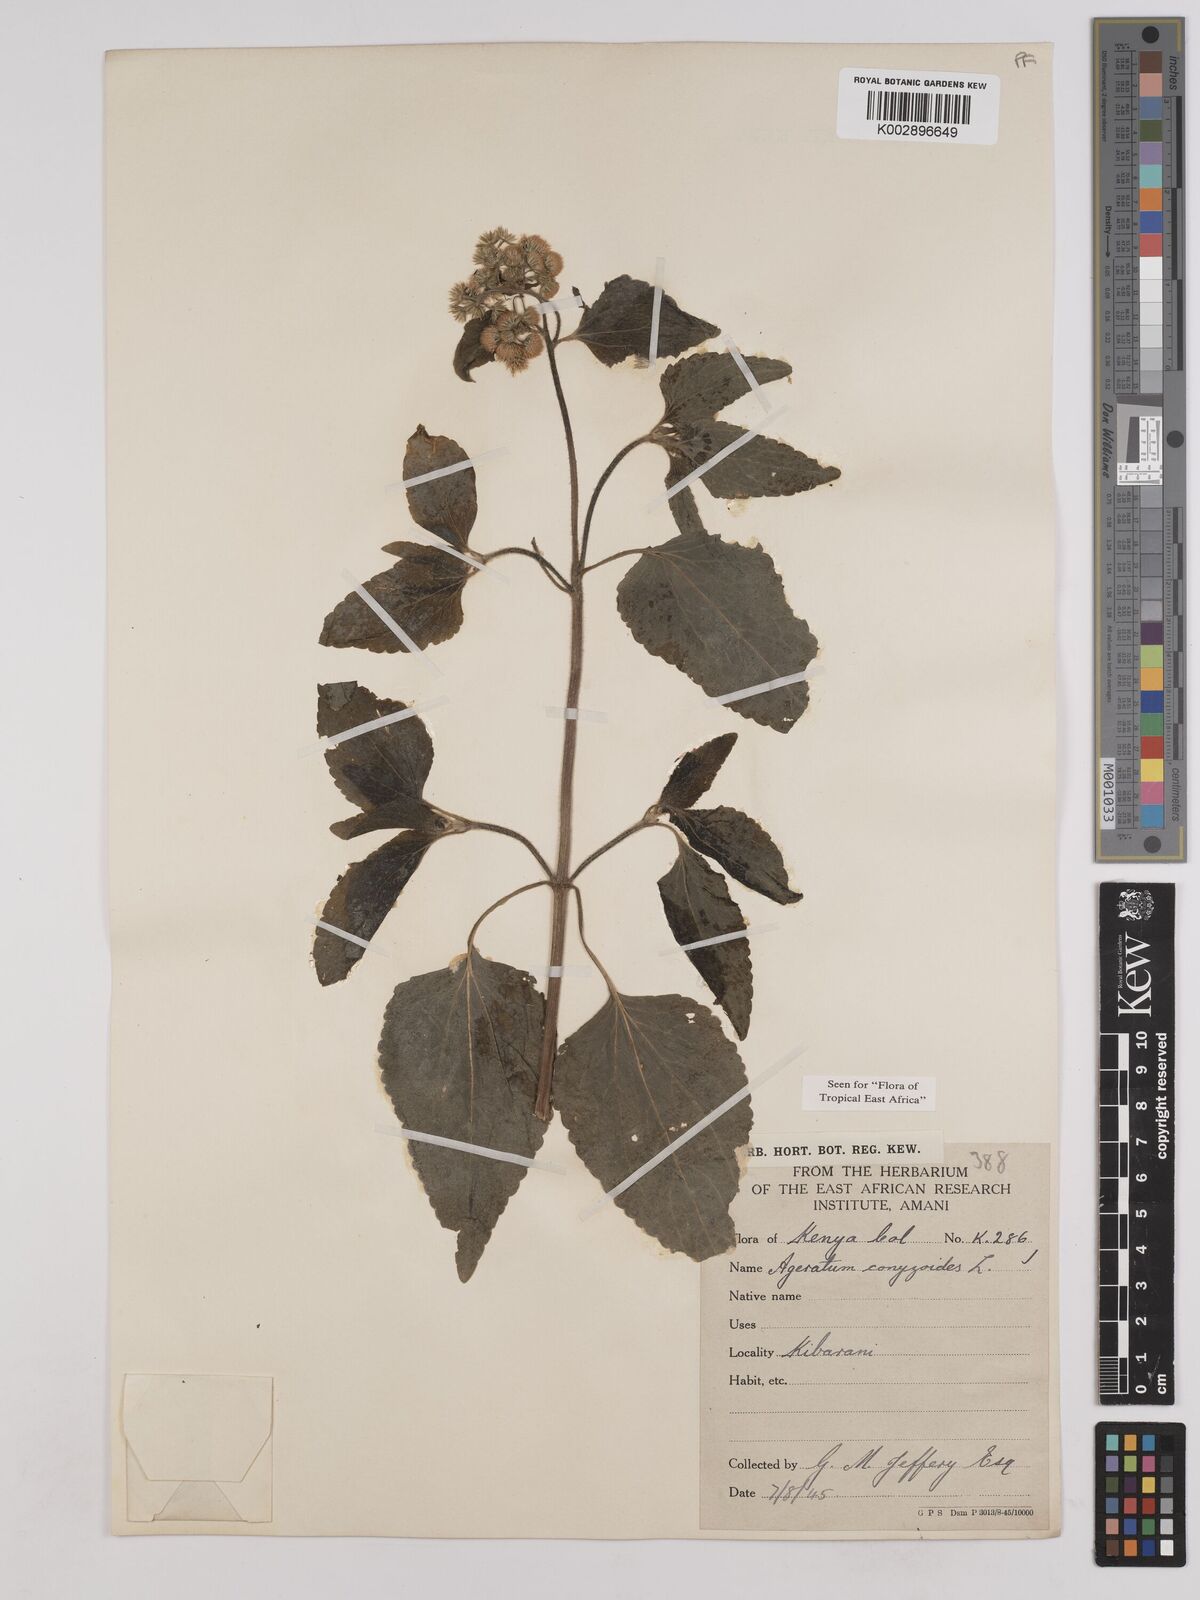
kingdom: Plantae
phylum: Tracheophyta
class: Magnoliopsida
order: Asterales
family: Asteraceae
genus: Ageratum
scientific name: Ageratum conyzoides
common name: Tropical whiteweed
